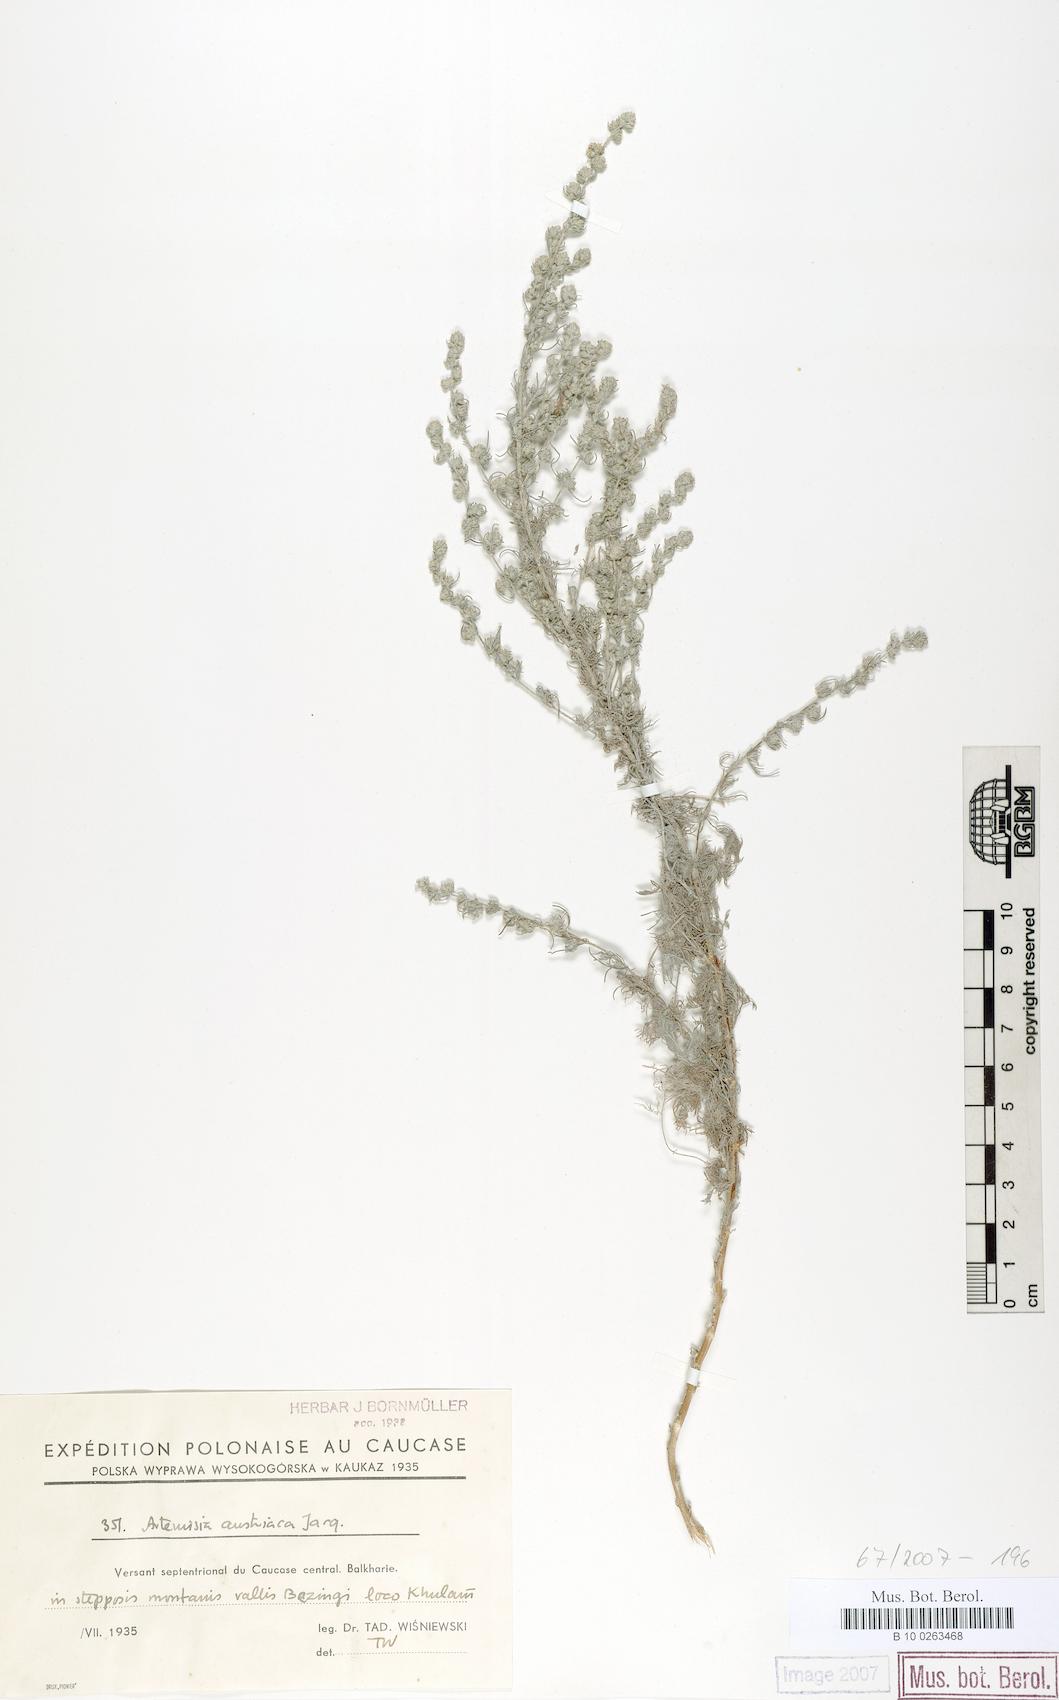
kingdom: Plantae
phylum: Tracheophyta
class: Magnoliopsida
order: Asterales
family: Asteraceae
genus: Artemisia
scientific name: Artemisia austriaca
